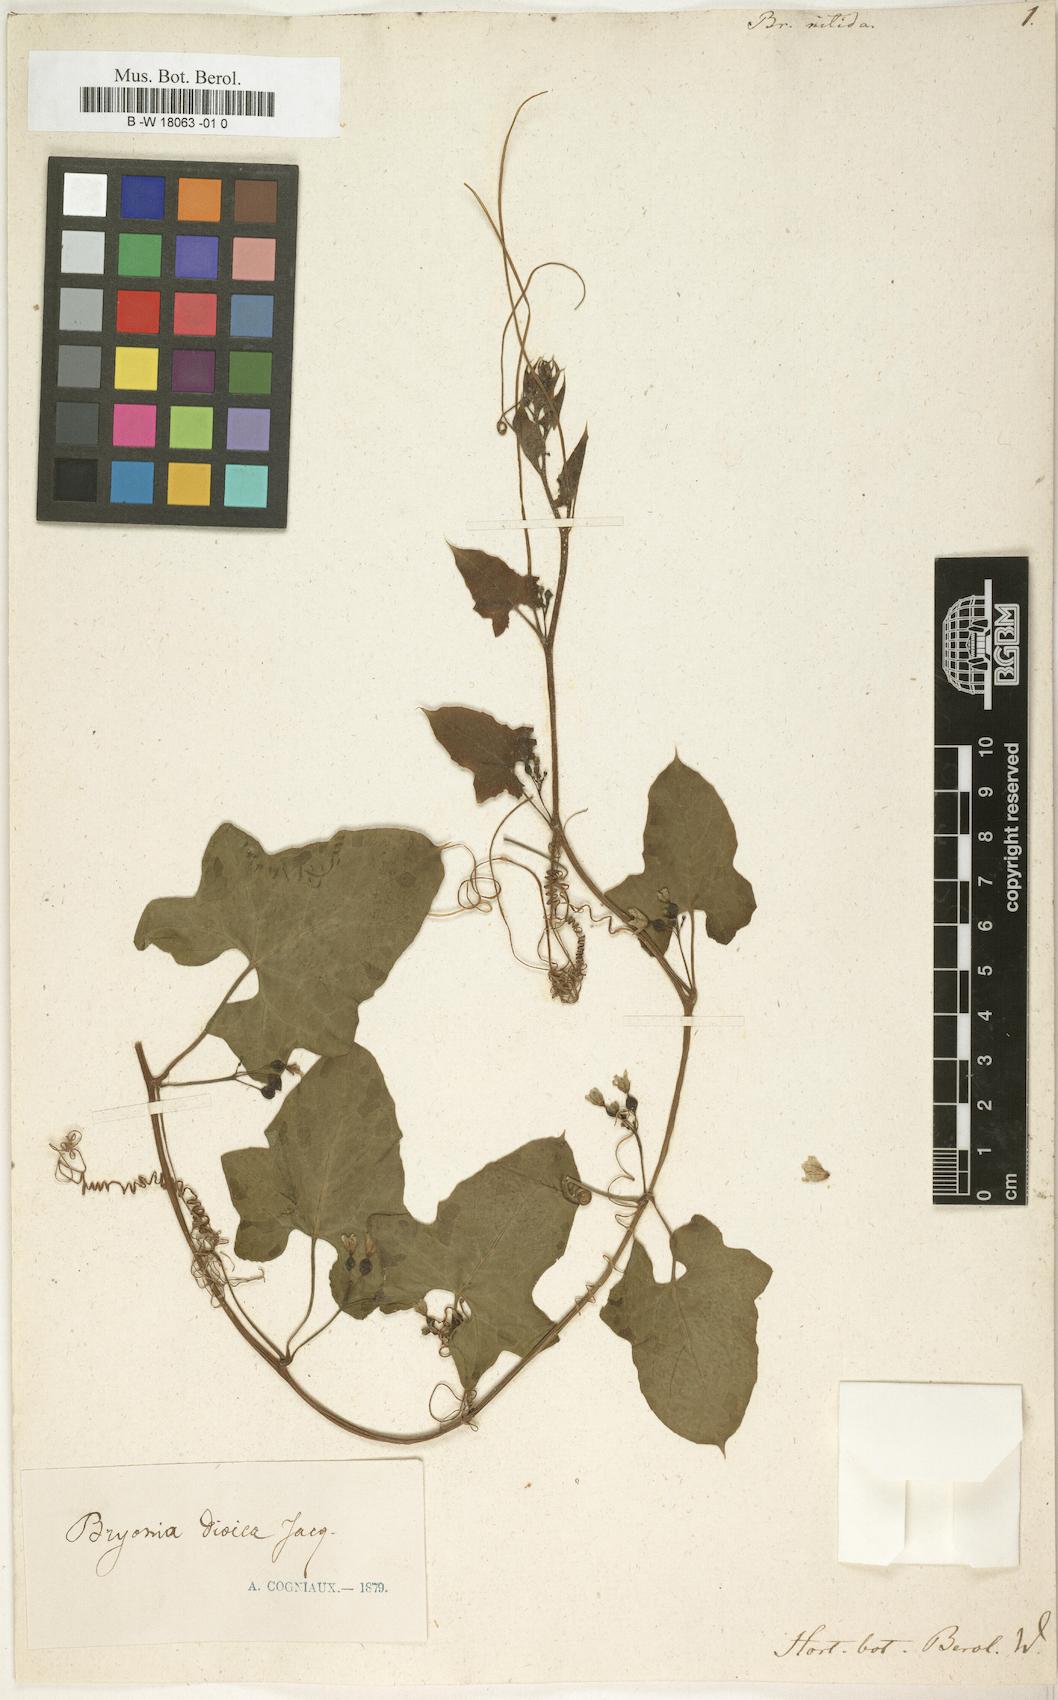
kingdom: Plantae
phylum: Tracheophyta
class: Magnoliopsida
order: Cucurbitales
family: Cucurbitaceae
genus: Bryonia
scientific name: Bryonia dioica
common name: White bryony
